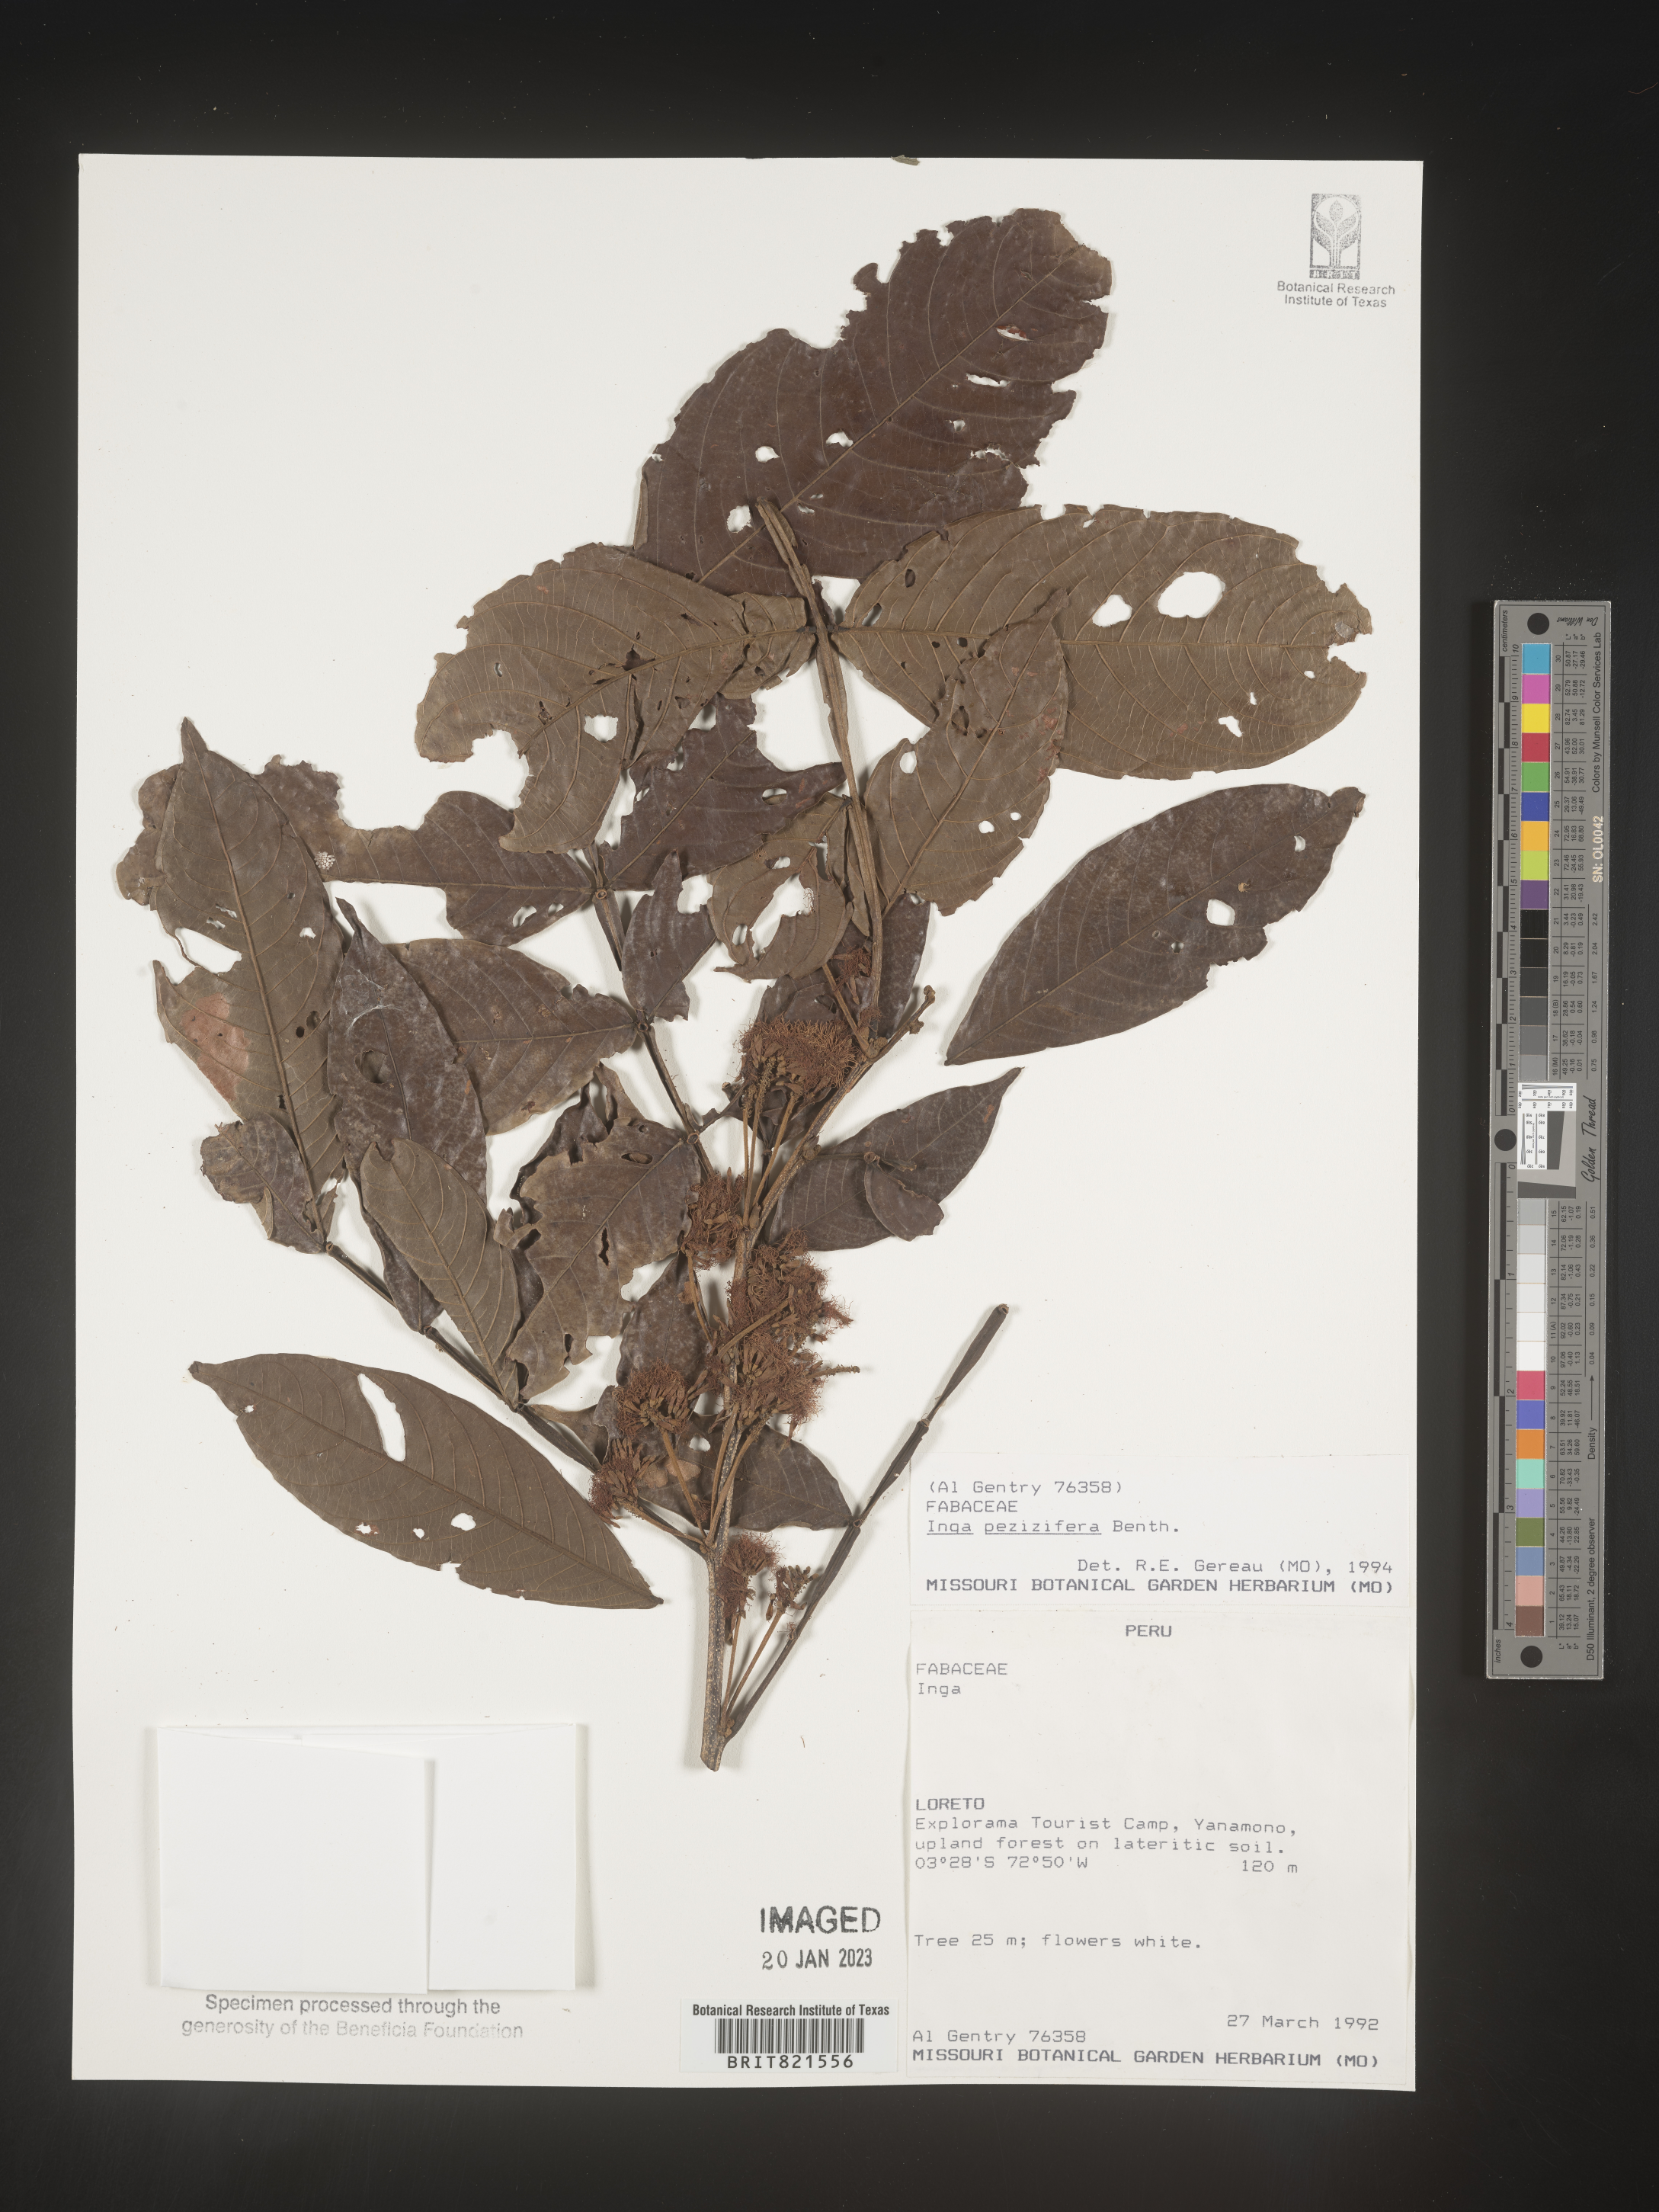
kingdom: Plantae
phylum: Tracheophyta
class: Magnoliopsida
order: Fabales
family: Fabaceae
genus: Inga
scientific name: Inga
